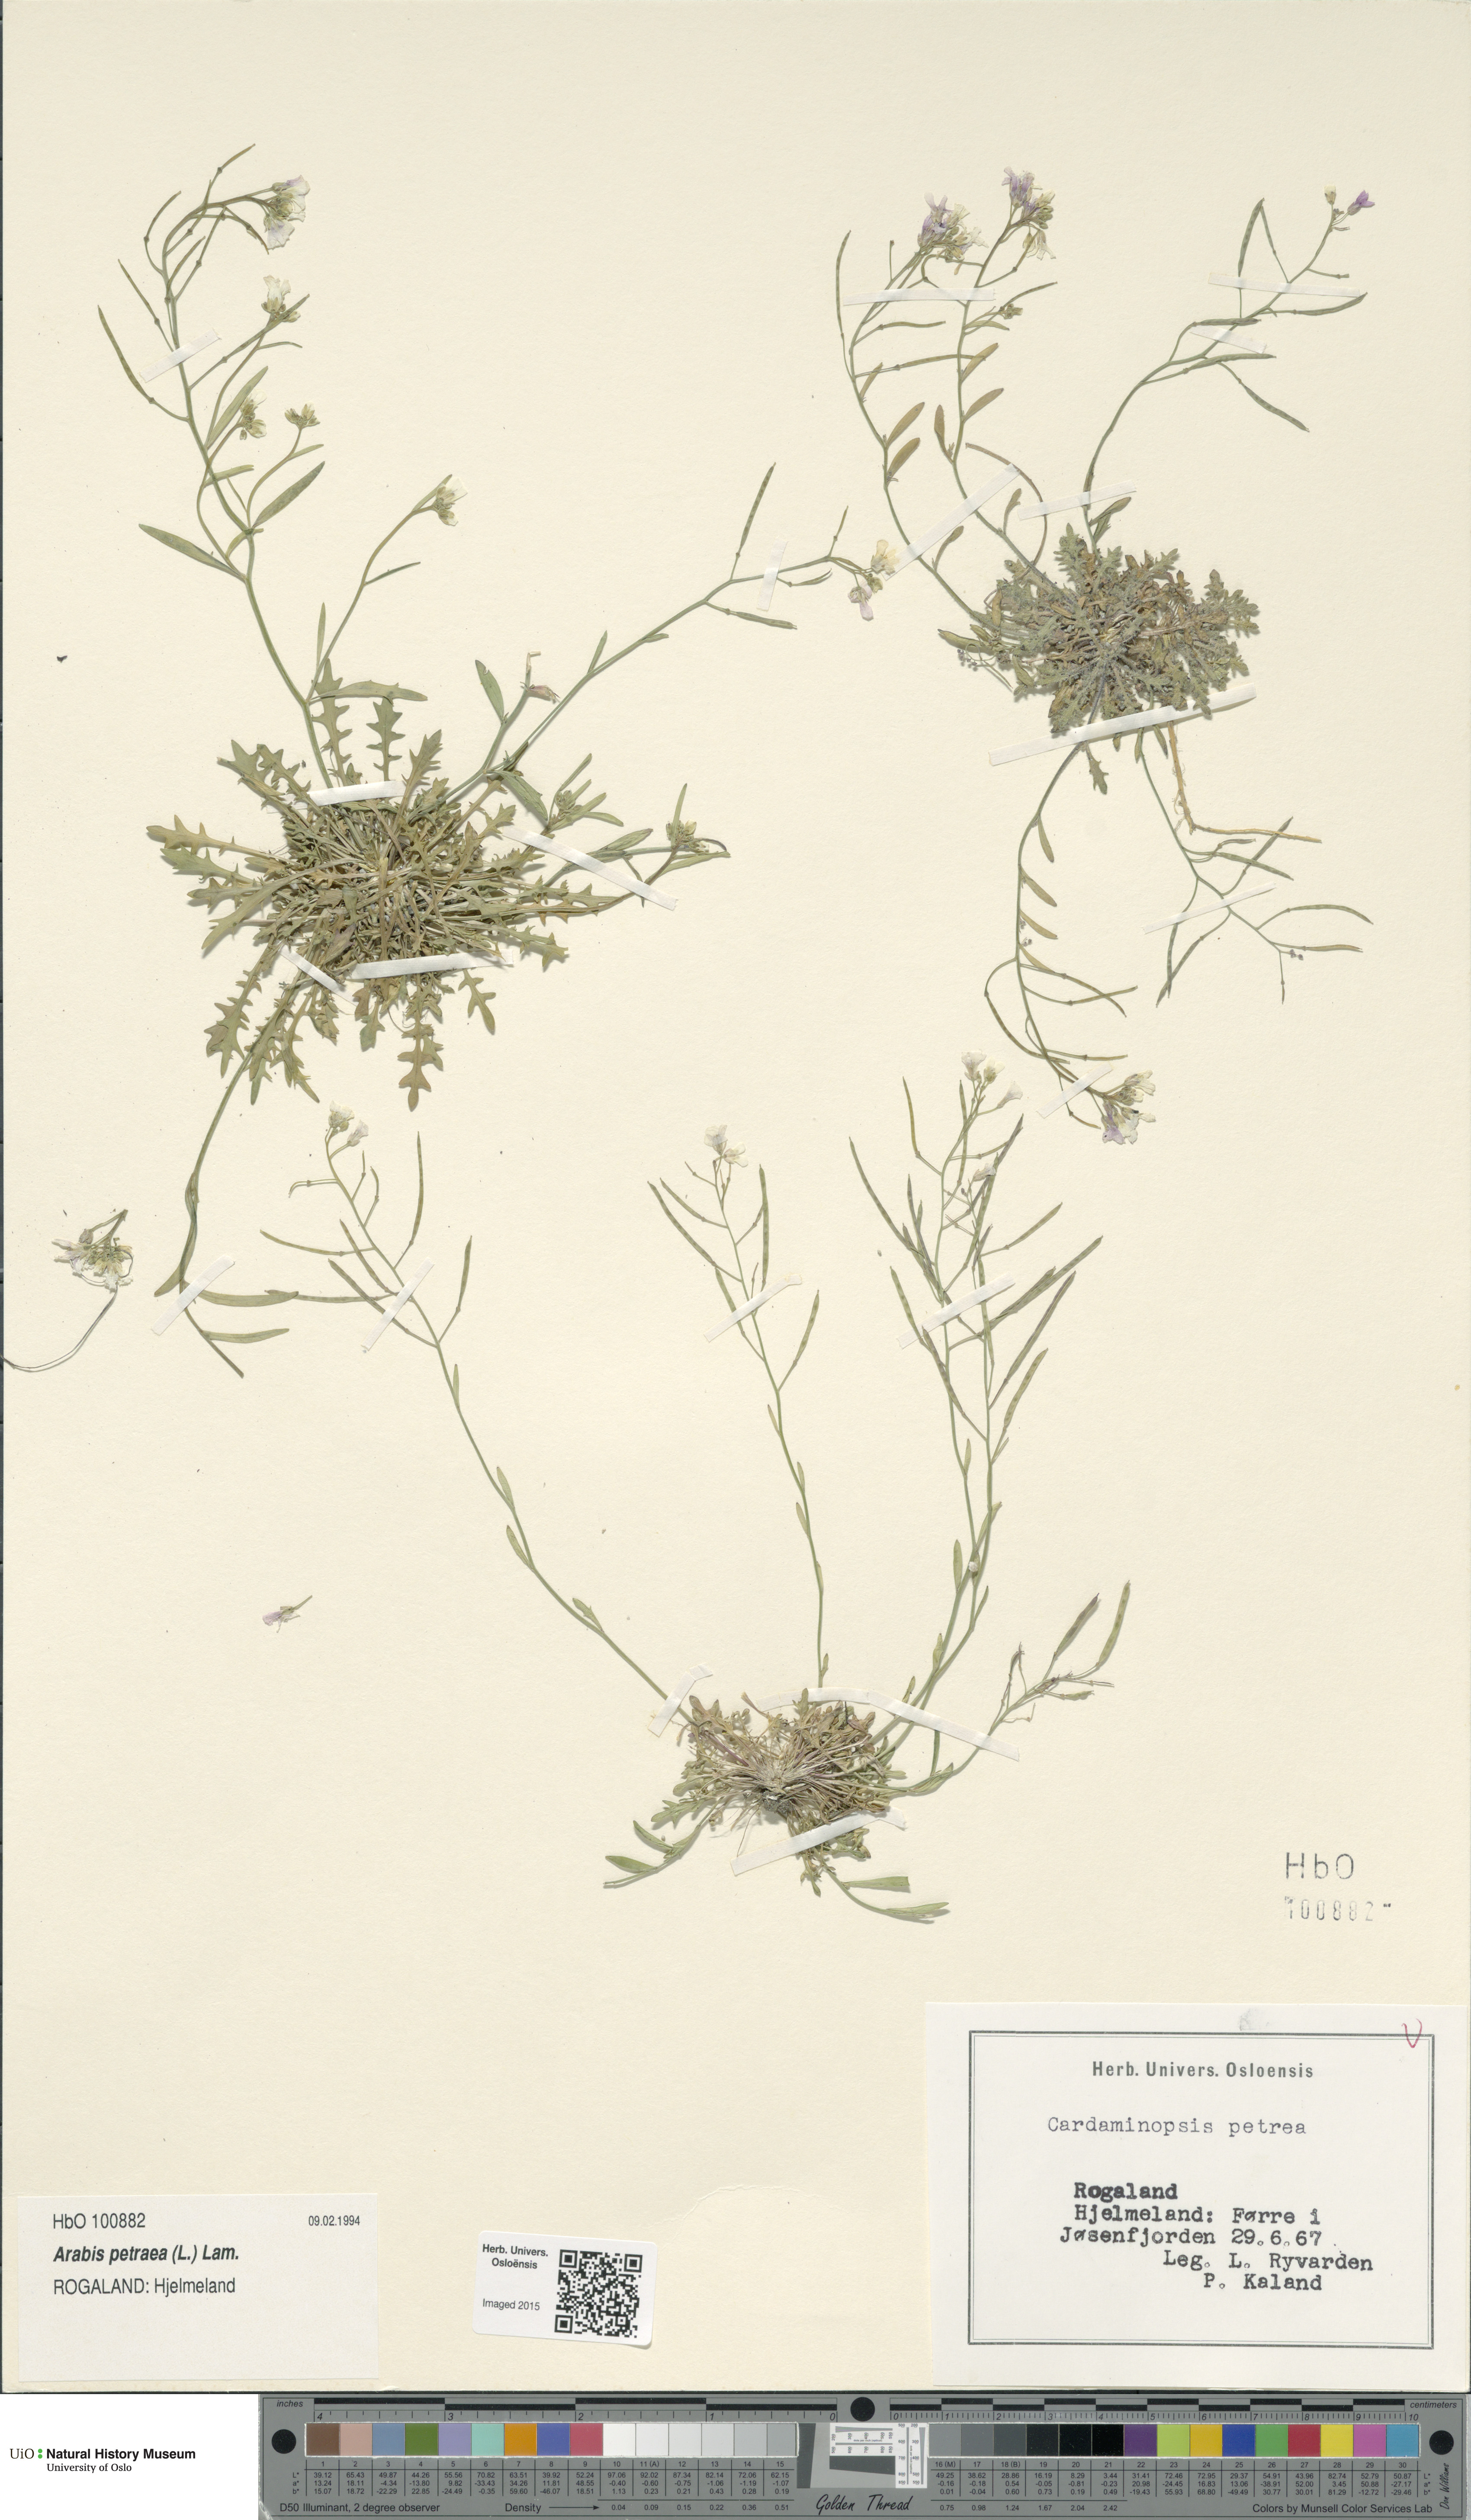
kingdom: Plantae
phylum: Tracheophyta
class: Magnoliopsida
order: Brassicales
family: Brassicaceae
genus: Arabidopsis
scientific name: Arabidopsis petraea
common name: Northern rock-cress
